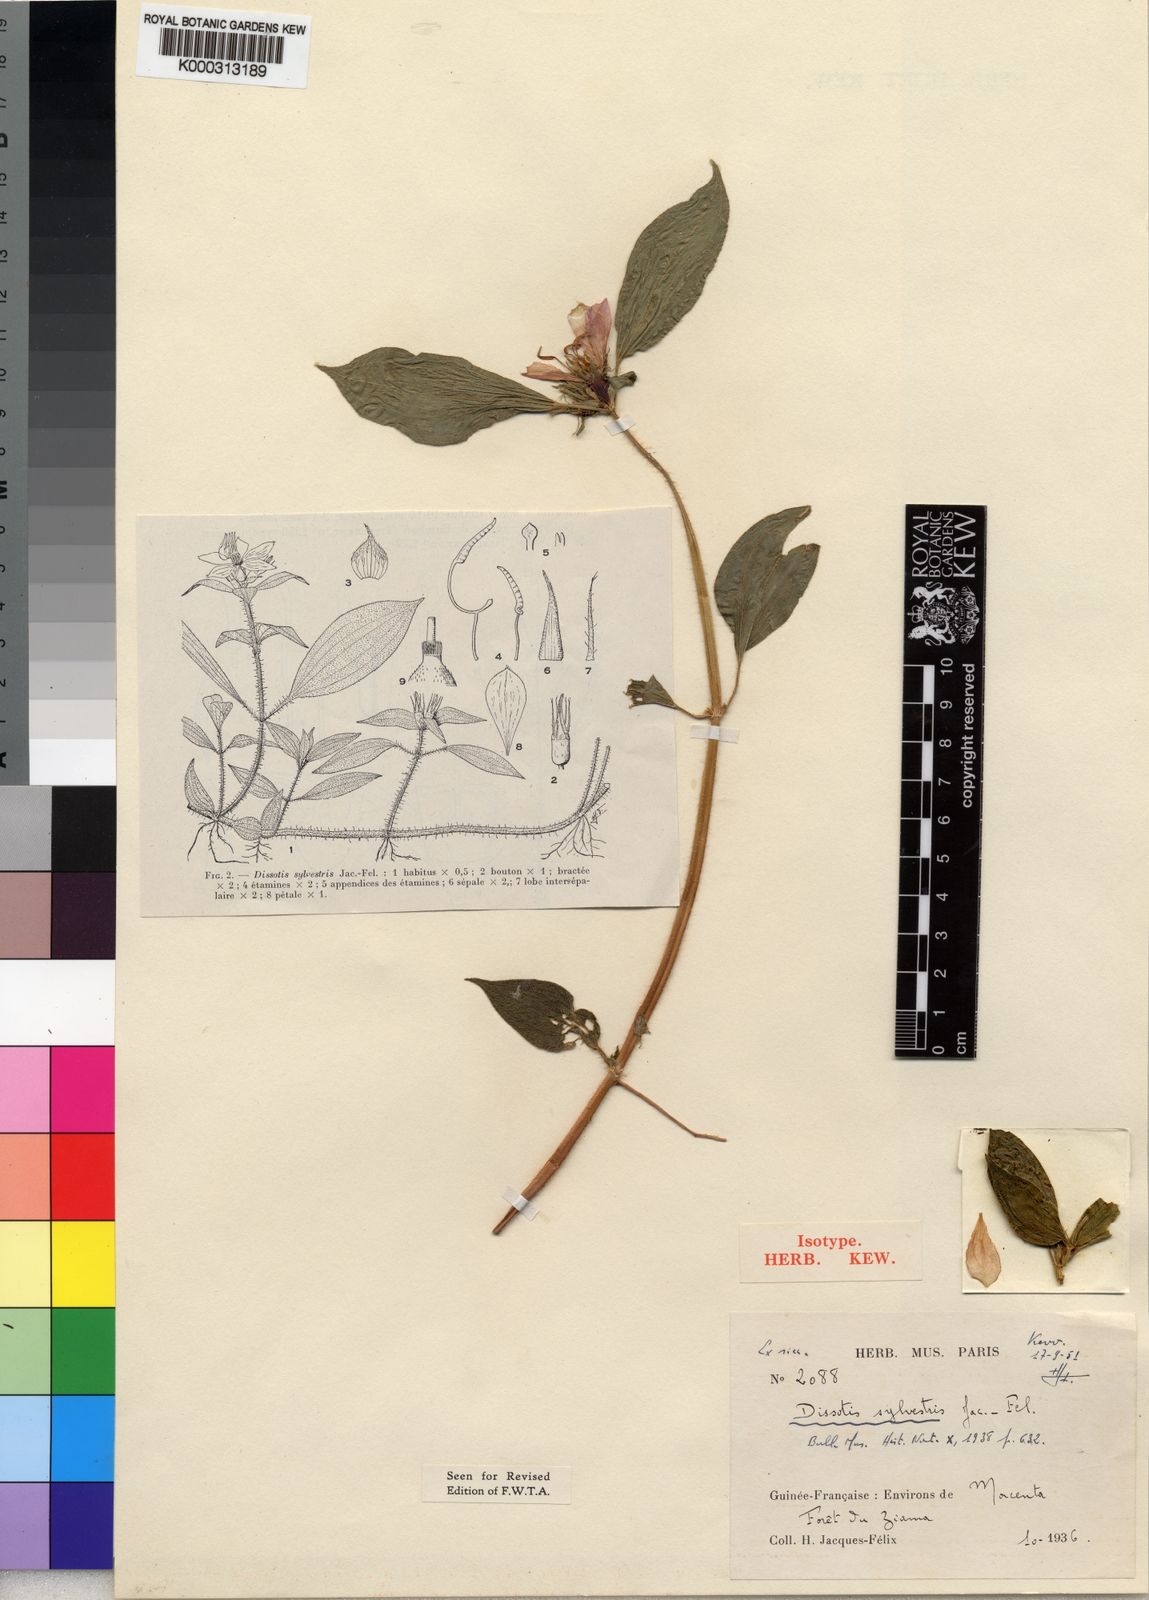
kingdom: Plantae
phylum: Tracheophyta
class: Magnoliopsida
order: Myrtales
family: Melastomataceae
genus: Heterotis
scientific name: Heterotis
